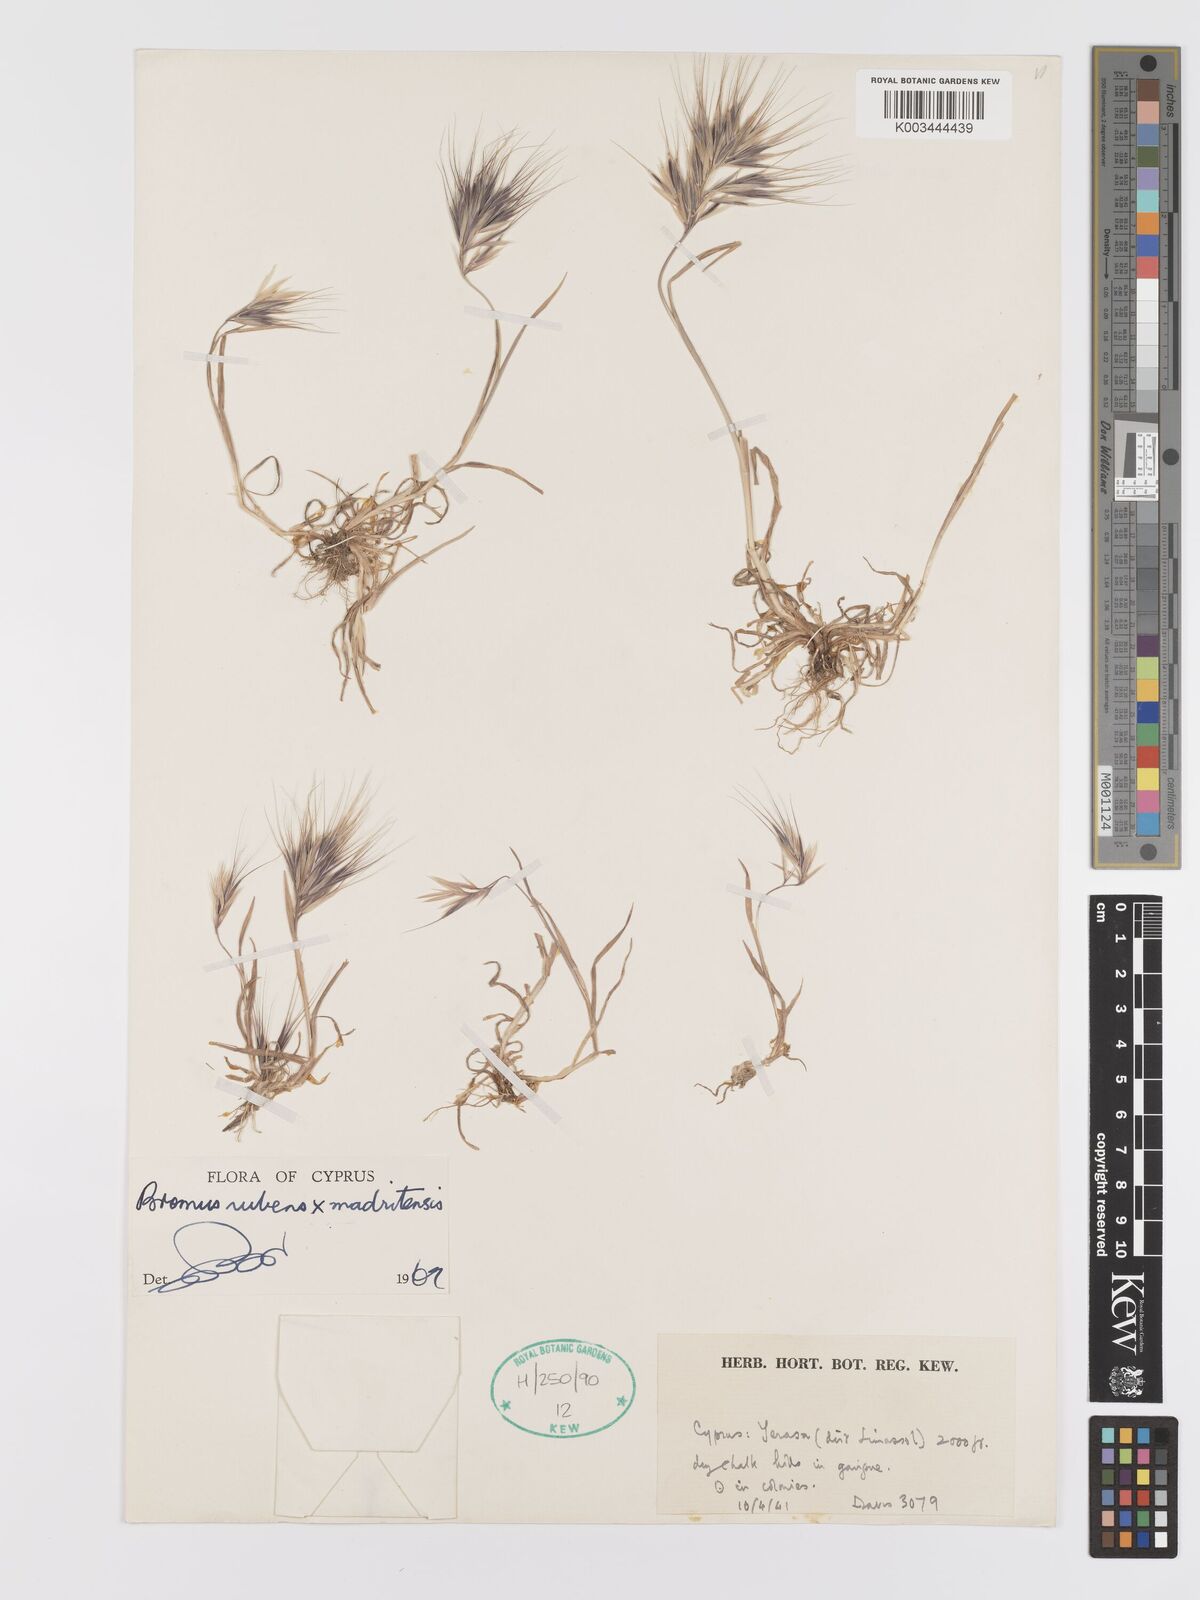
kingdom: Plantae
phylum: Tracheophyta
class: Liliopsida
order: Poales
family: Poaceae
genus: Bromus
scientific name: Bromus madritensis
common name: Compact brome
